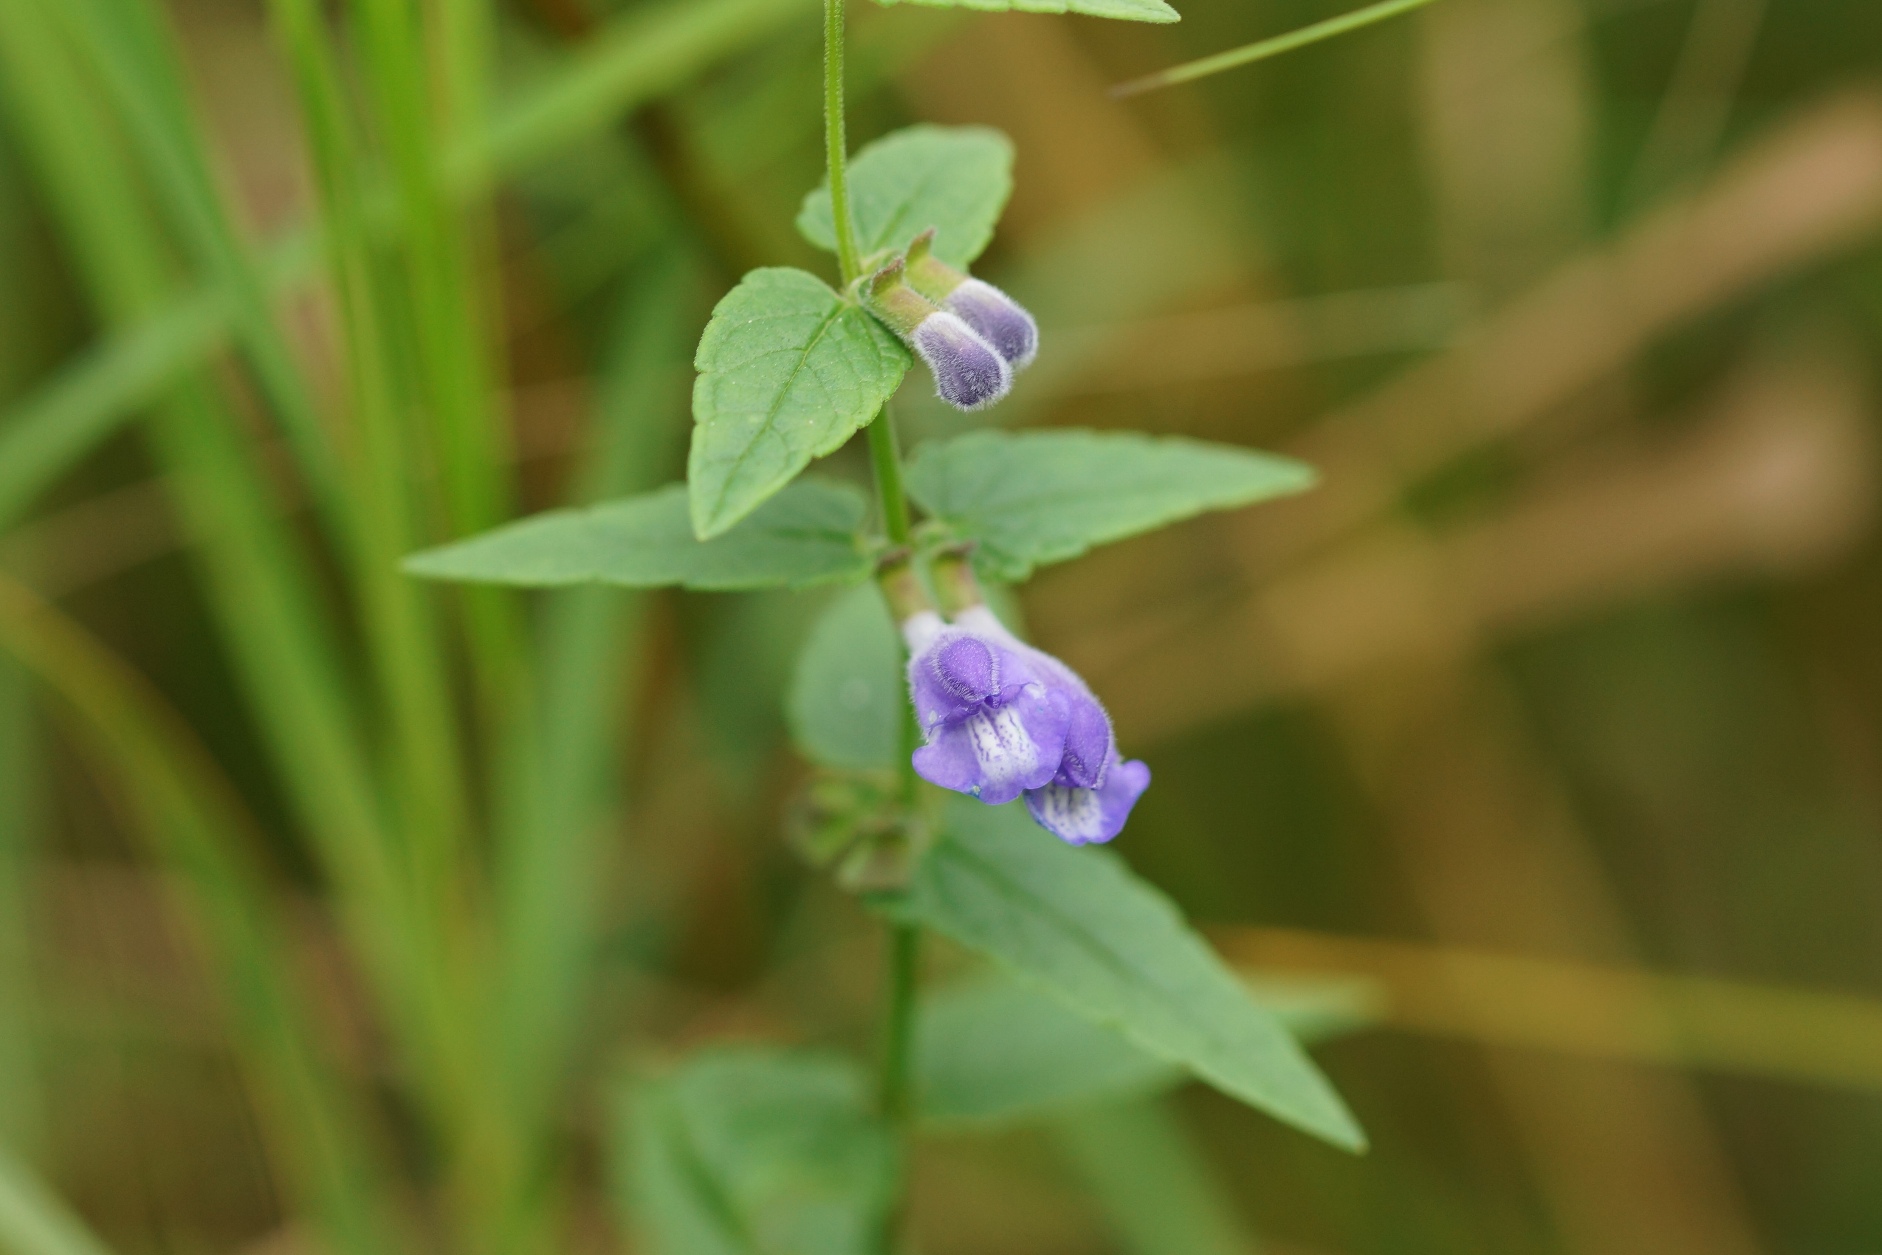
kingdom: Plantae
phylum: Tracheophyta
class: Magnoliopsida
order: Lamiales
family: Lamiaceae
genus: Scutellaria
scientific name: Scutellaria galericulata
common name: Almindelig skjolddrager
